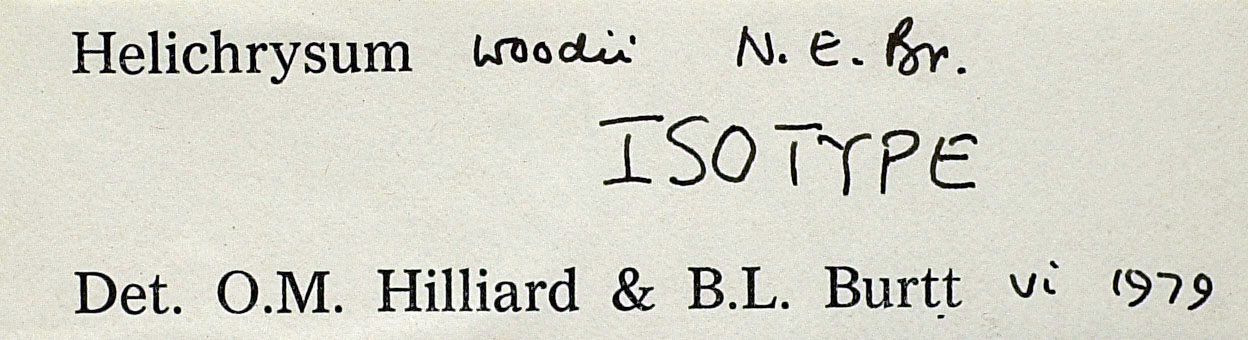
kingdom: Plantae
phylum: Tracheophyta
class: Magnoliopsida
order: Asterales
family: Asteraceae
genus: Helichrysum
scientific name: Helichrysum woodii
